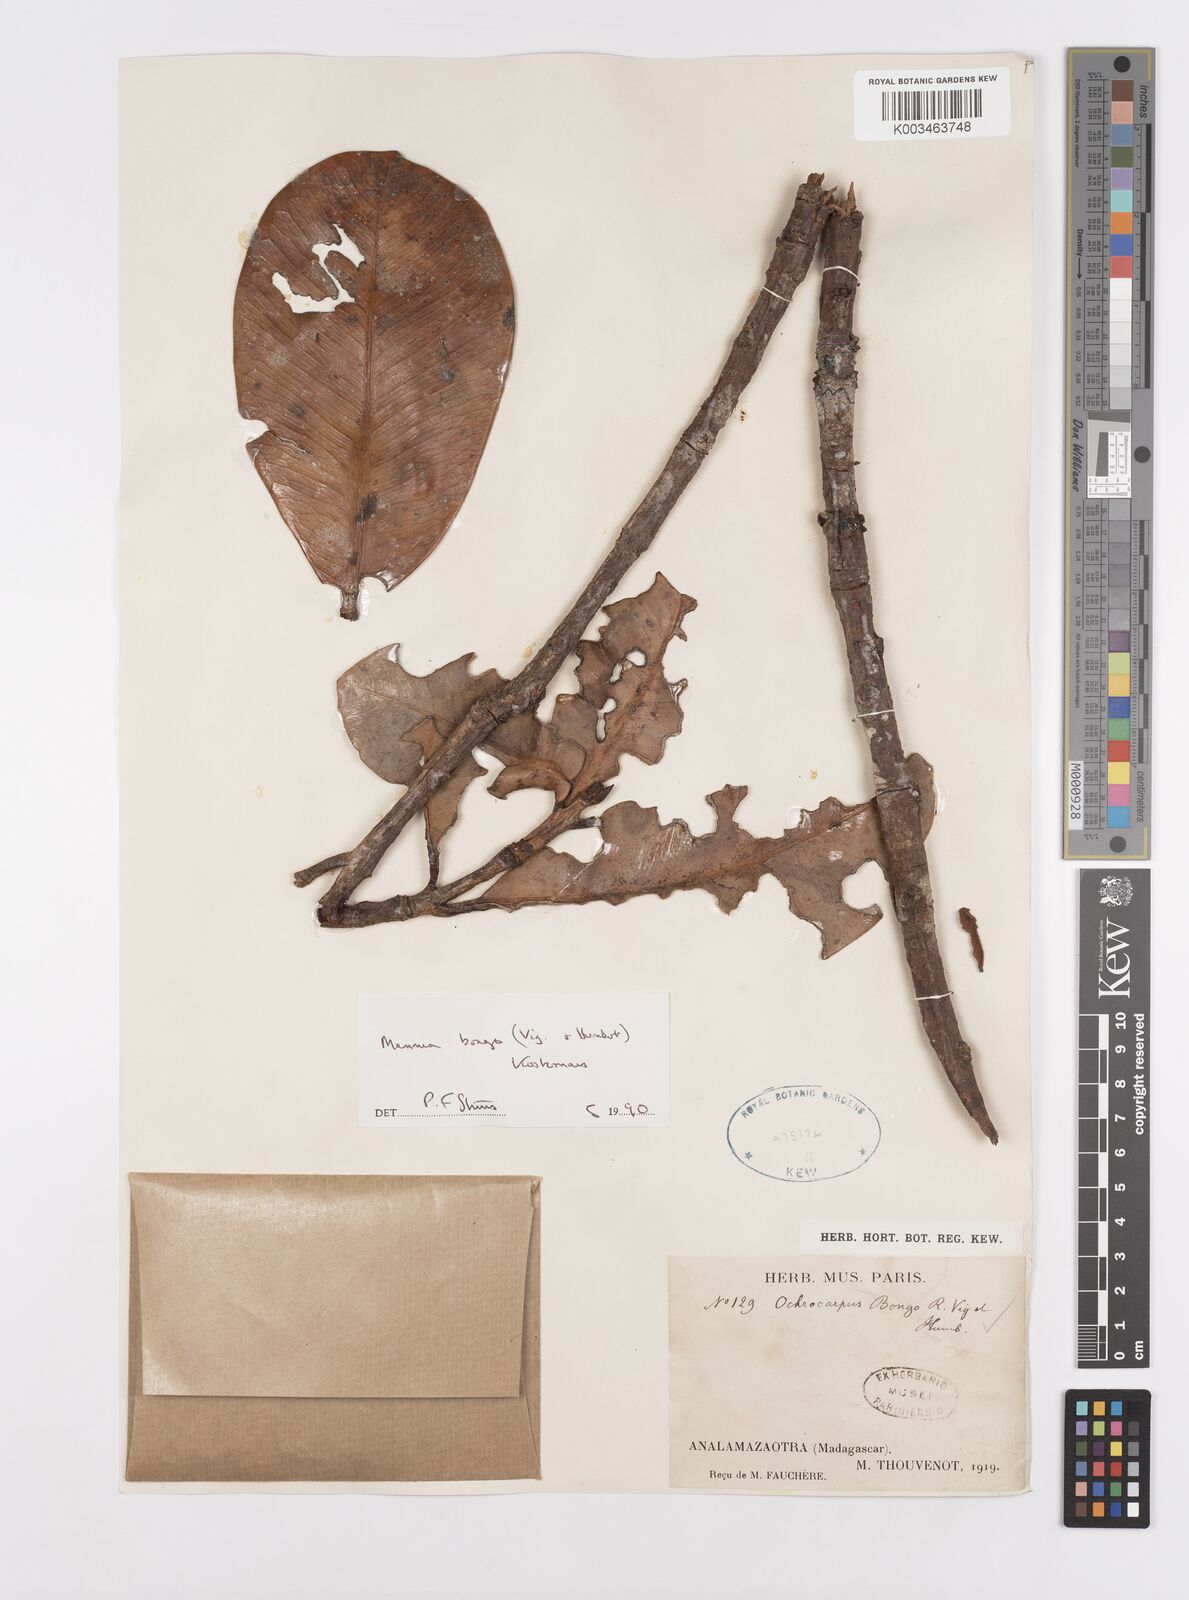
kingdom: Plantae
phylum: Tracheophyta
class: Magnoliopsida
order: Malpighiales
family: Calophyllaceae
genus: Mammea
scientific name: Mammea bongo
